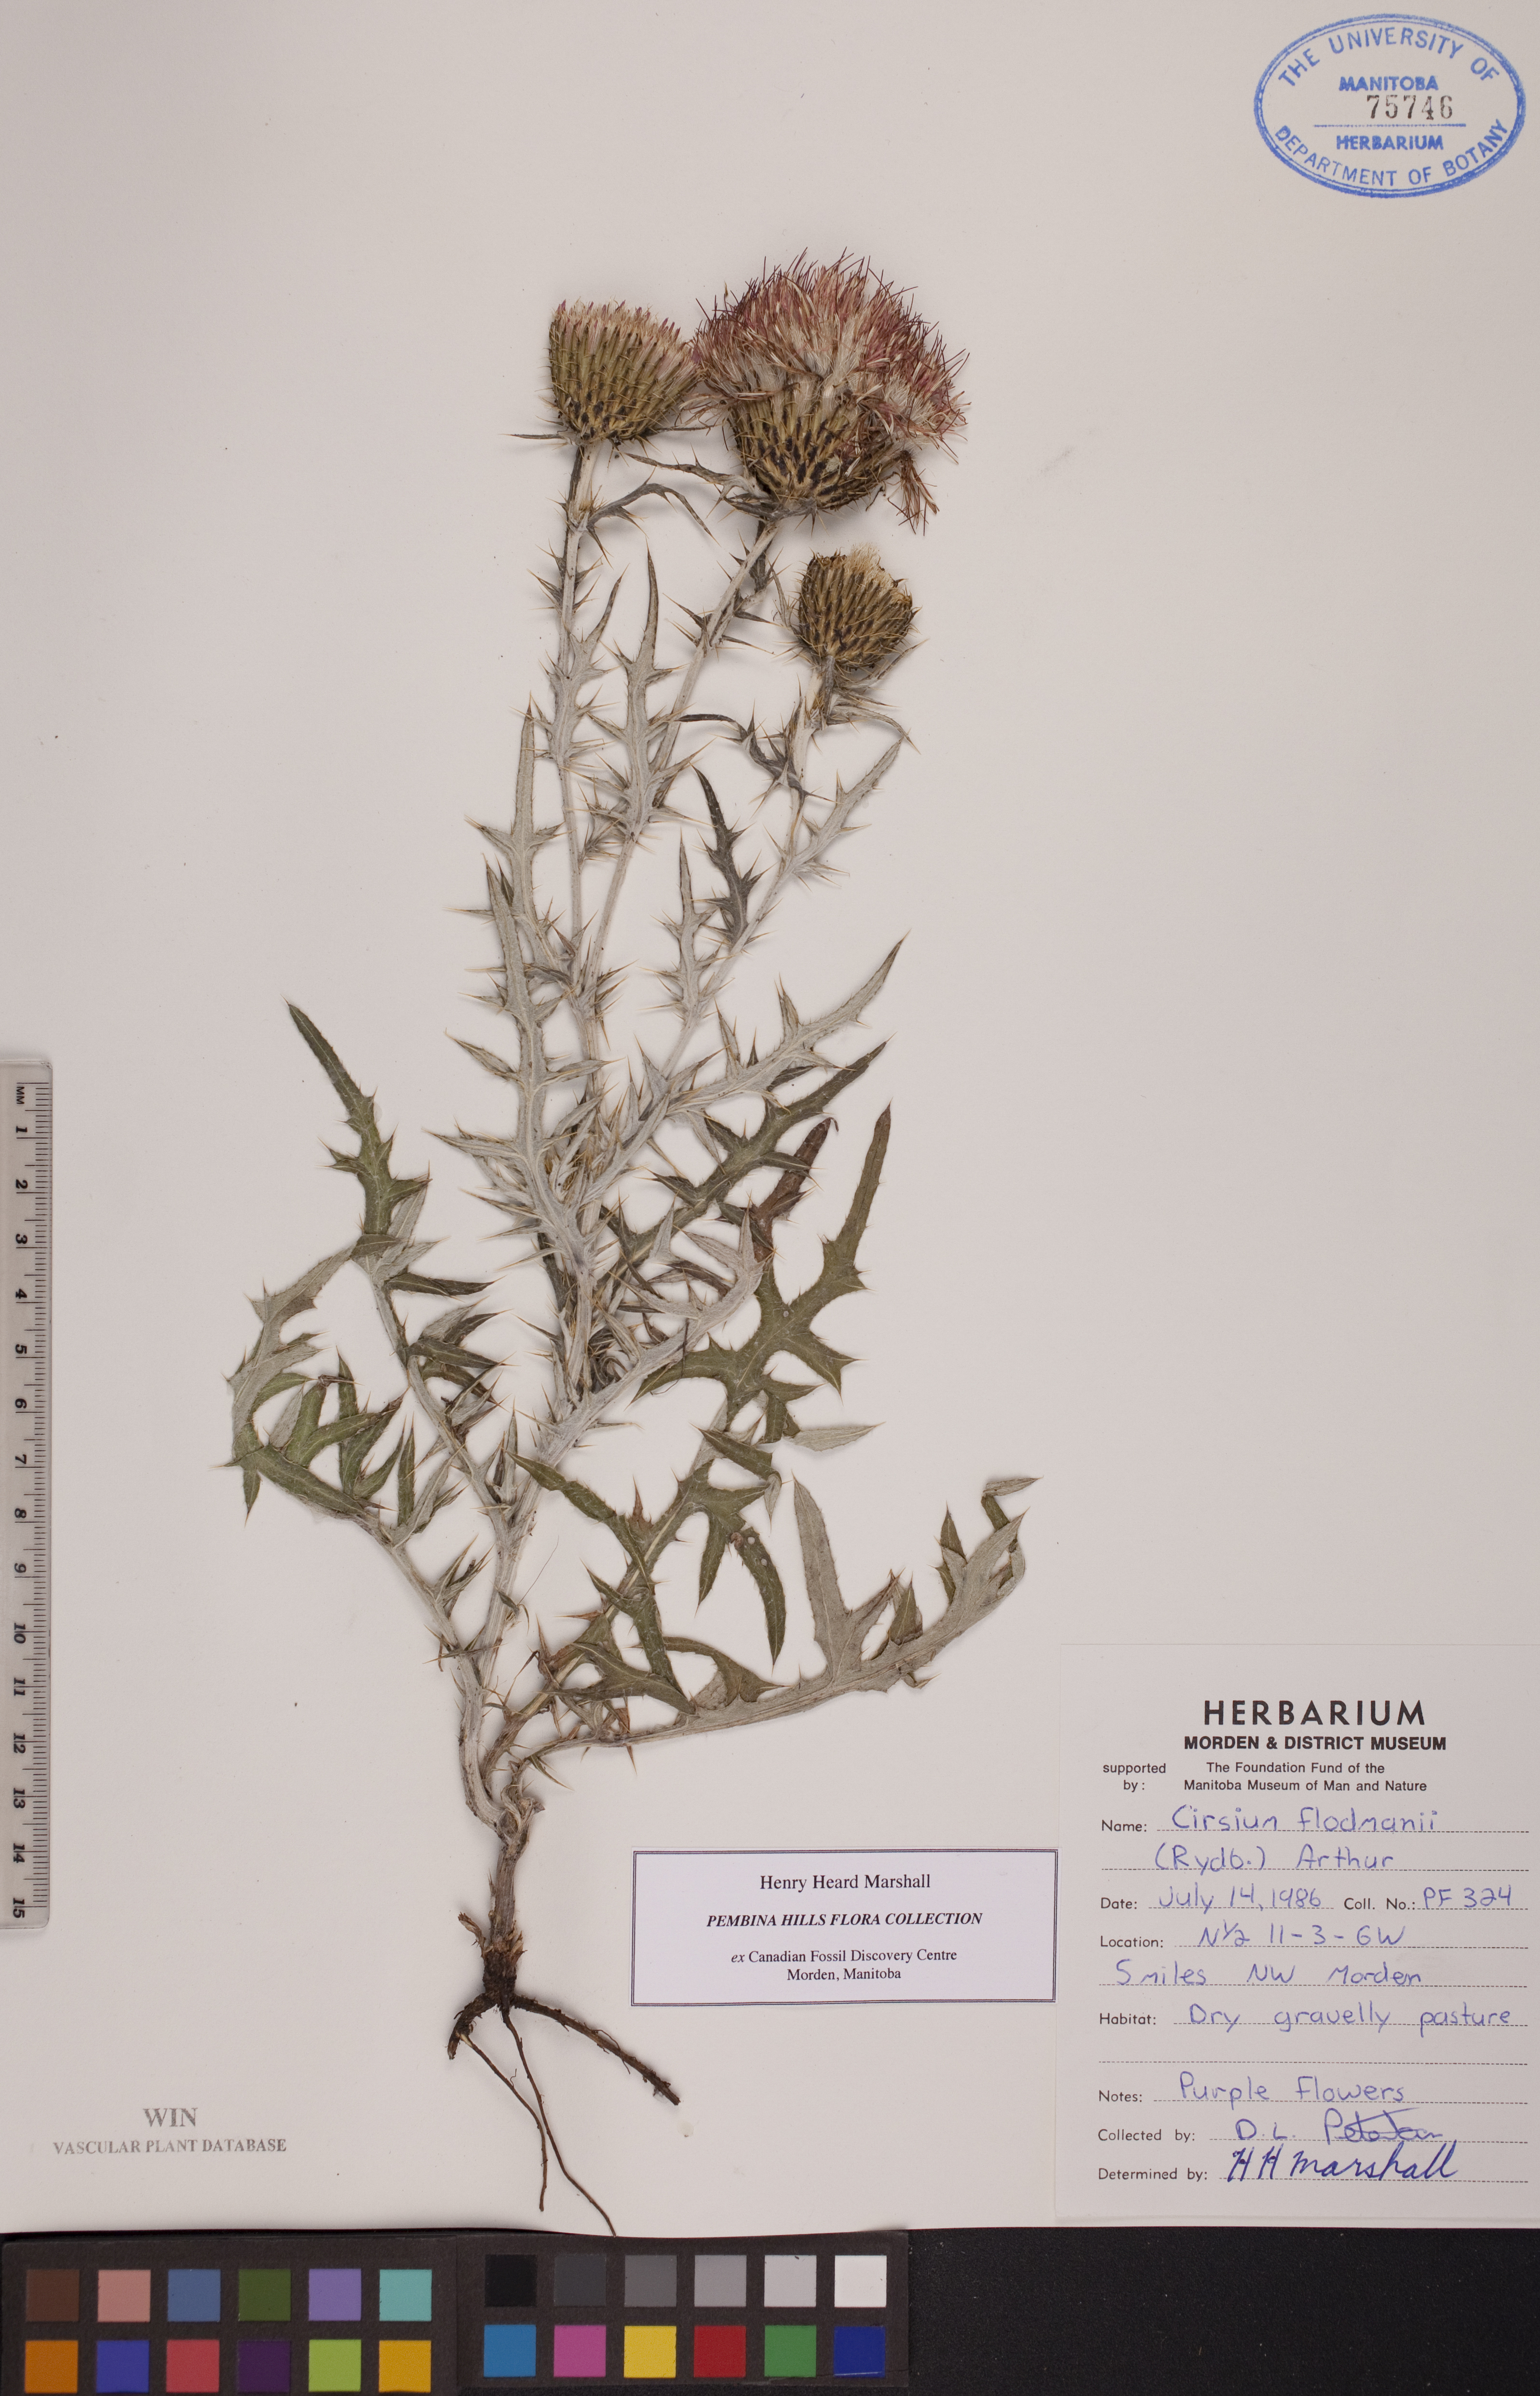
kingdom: Plantae
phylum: Tracheophyta
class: Magnoliopsida
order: Asterales
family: Asteraceae
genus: Cirsium
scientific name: Cirsium flodmanii
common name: Flodman's thistle
